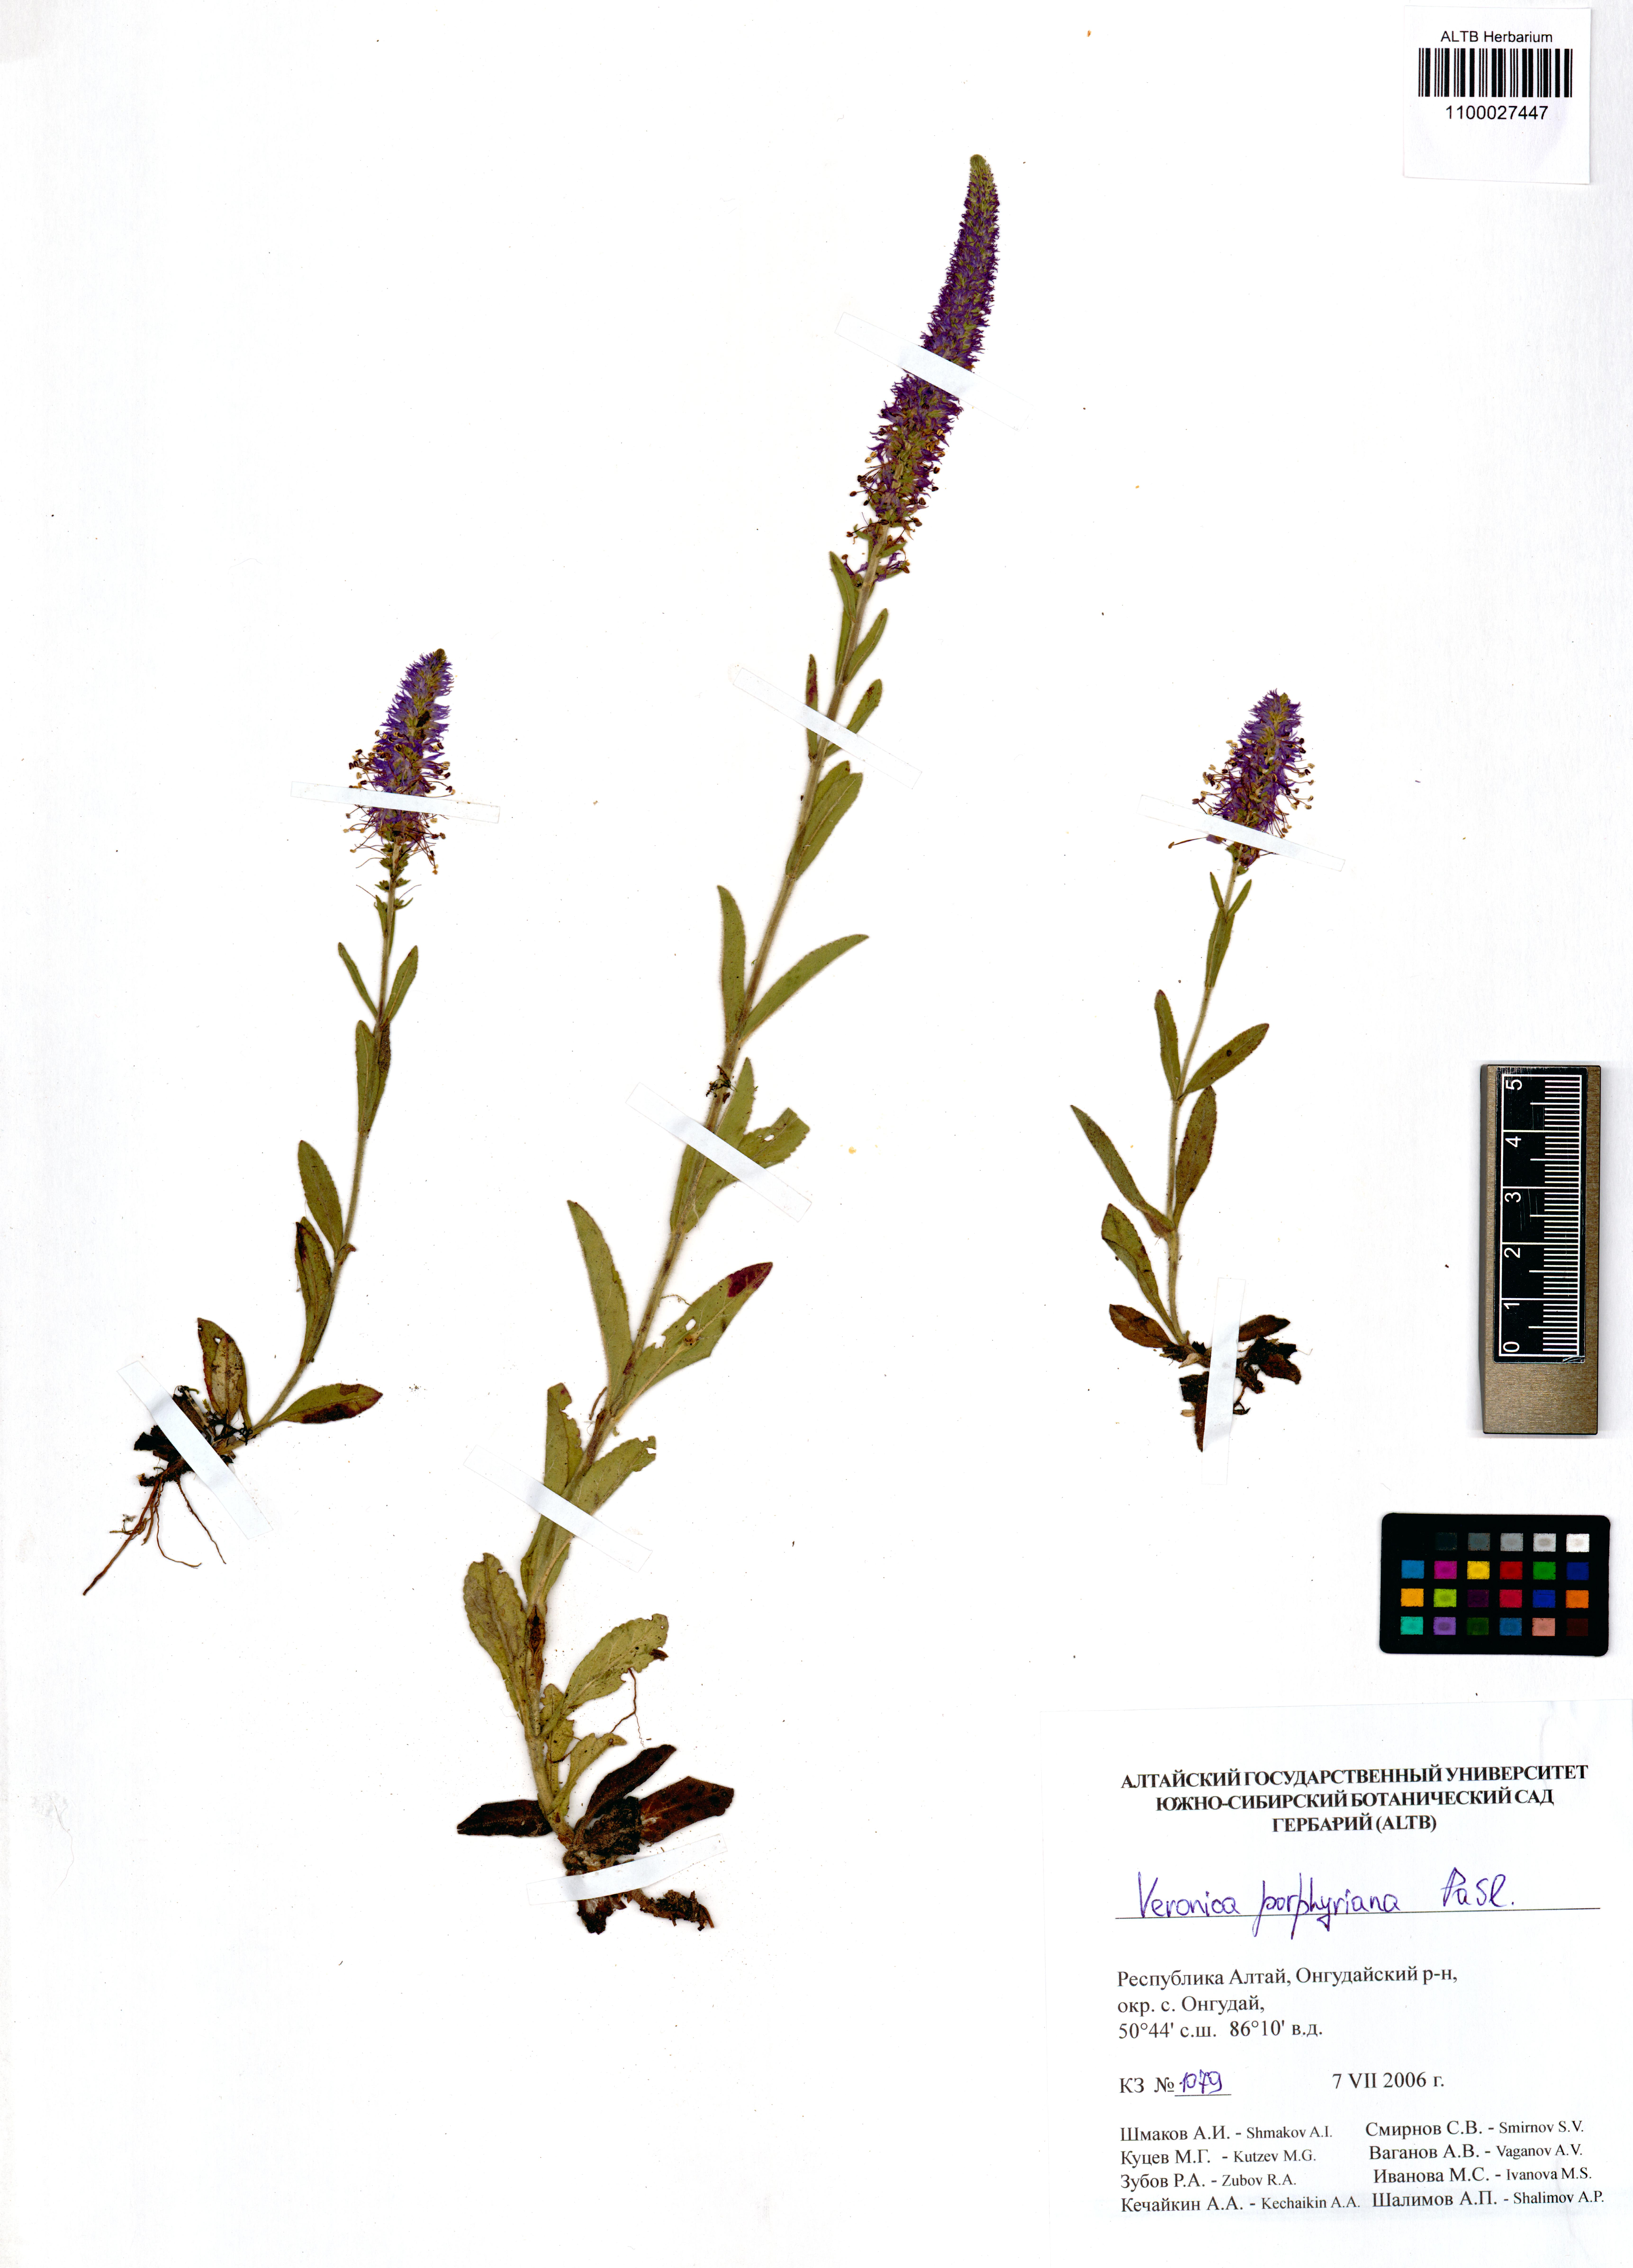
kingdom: Plantae
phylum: Tracheophyta
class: Magnoliopsida
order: Lamiales
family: Plantaginaceae
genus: Veronica
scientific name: Veronica porphyriana
